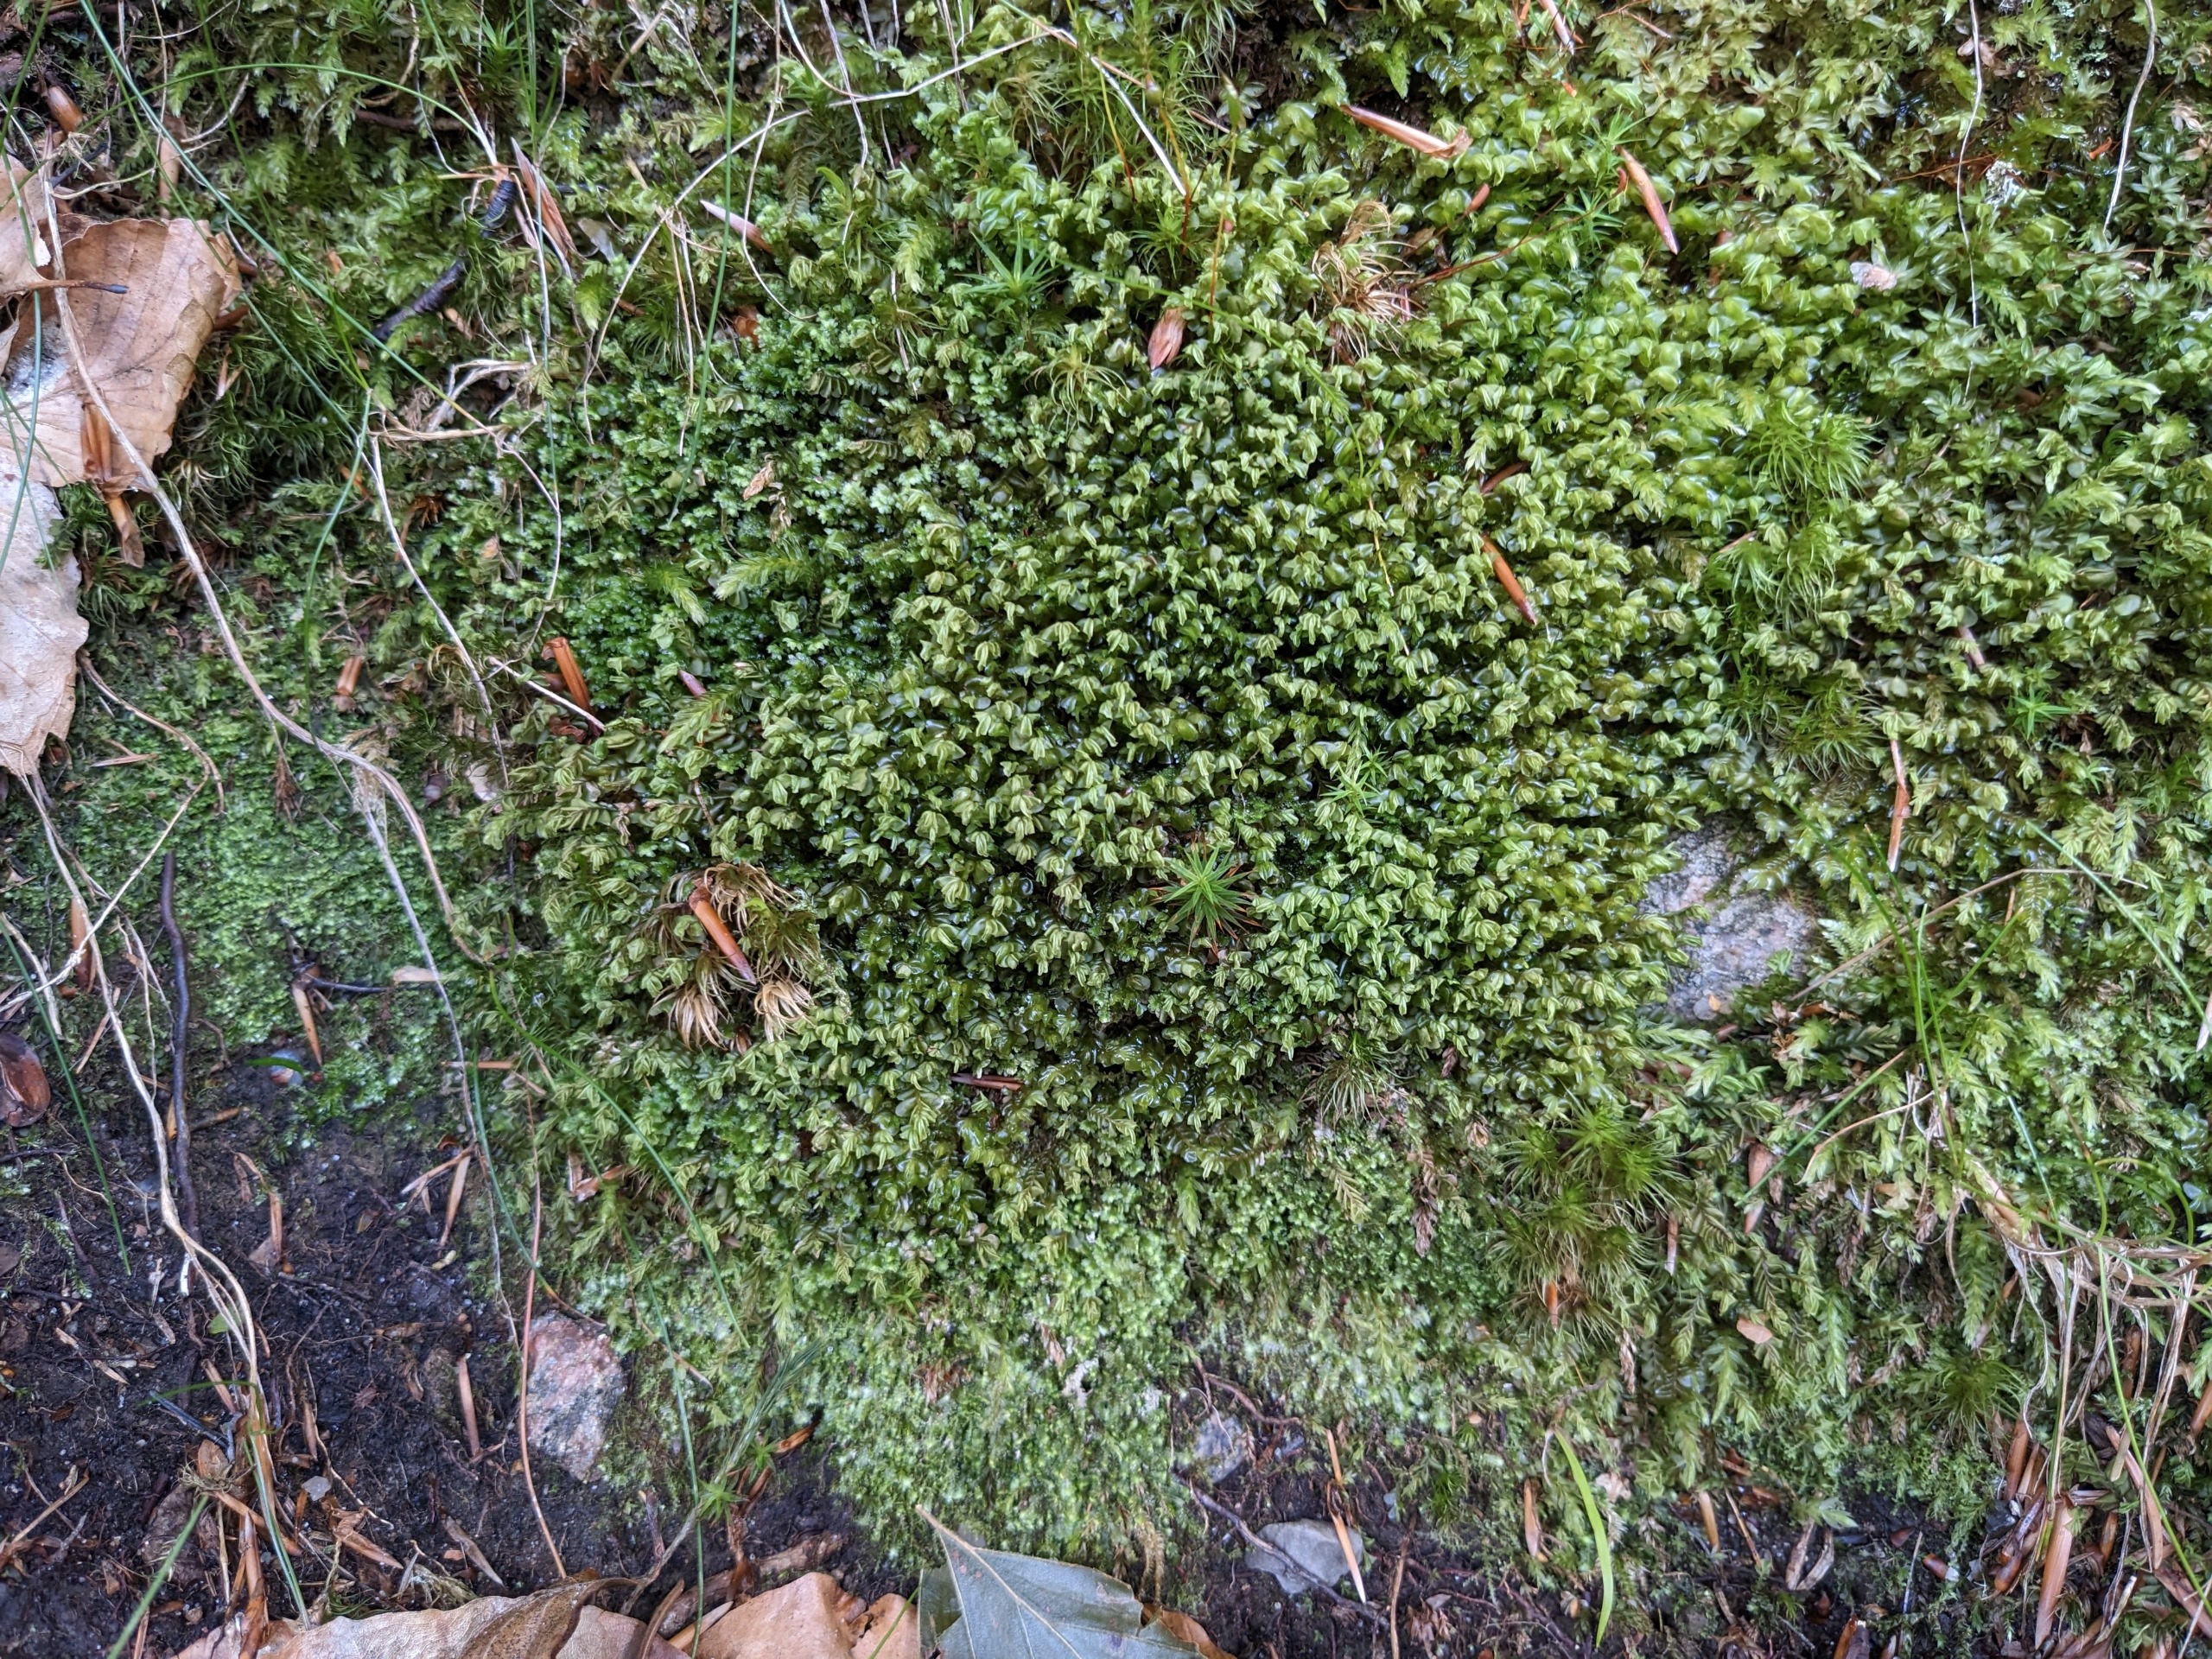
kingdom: Plantae
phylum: Marchantiophyta
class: Jungermanniopsida
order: Jungermanniales
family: Plagiochilaceae
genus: Plagiochila
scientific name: Plagiochila asplenioides
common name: Radeløv-hindeblad
